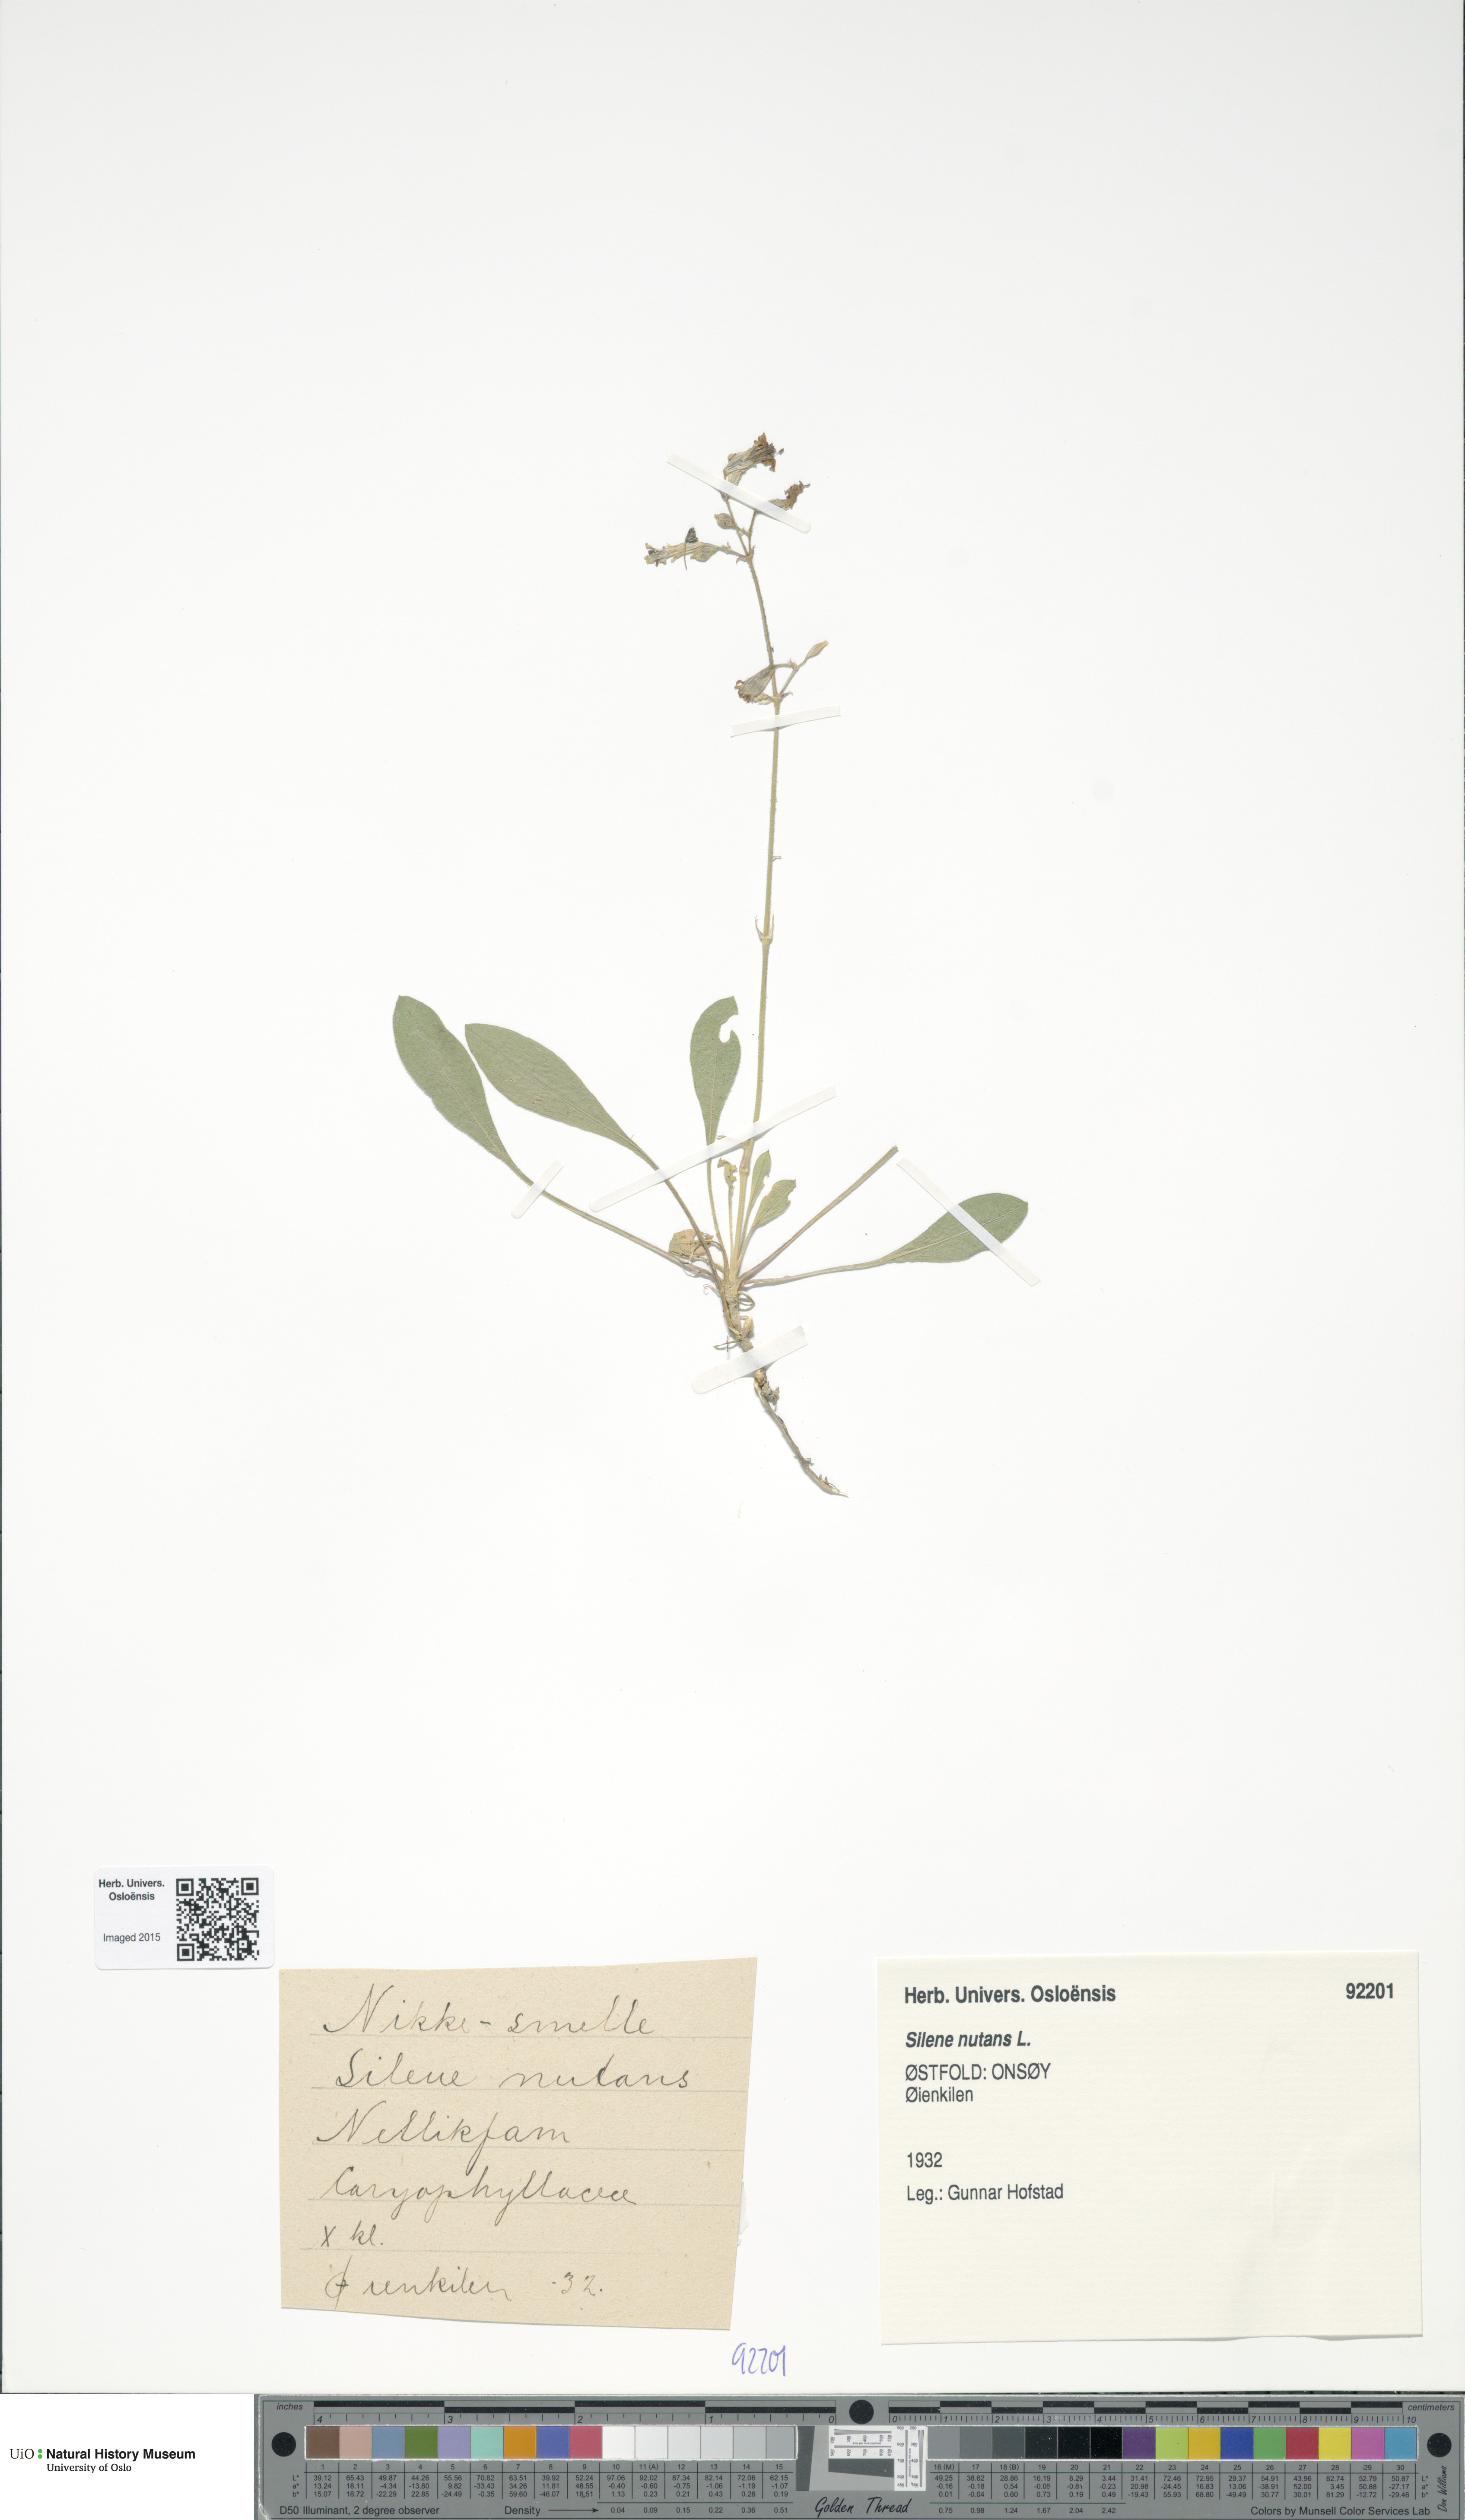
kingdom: Plantae
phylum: Tracheophyta
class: Magnoliopsida
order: Caryophyllales
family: Caryophyllaceae
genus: Silene
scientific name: Silene nutans
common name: Nottingham catchfly
